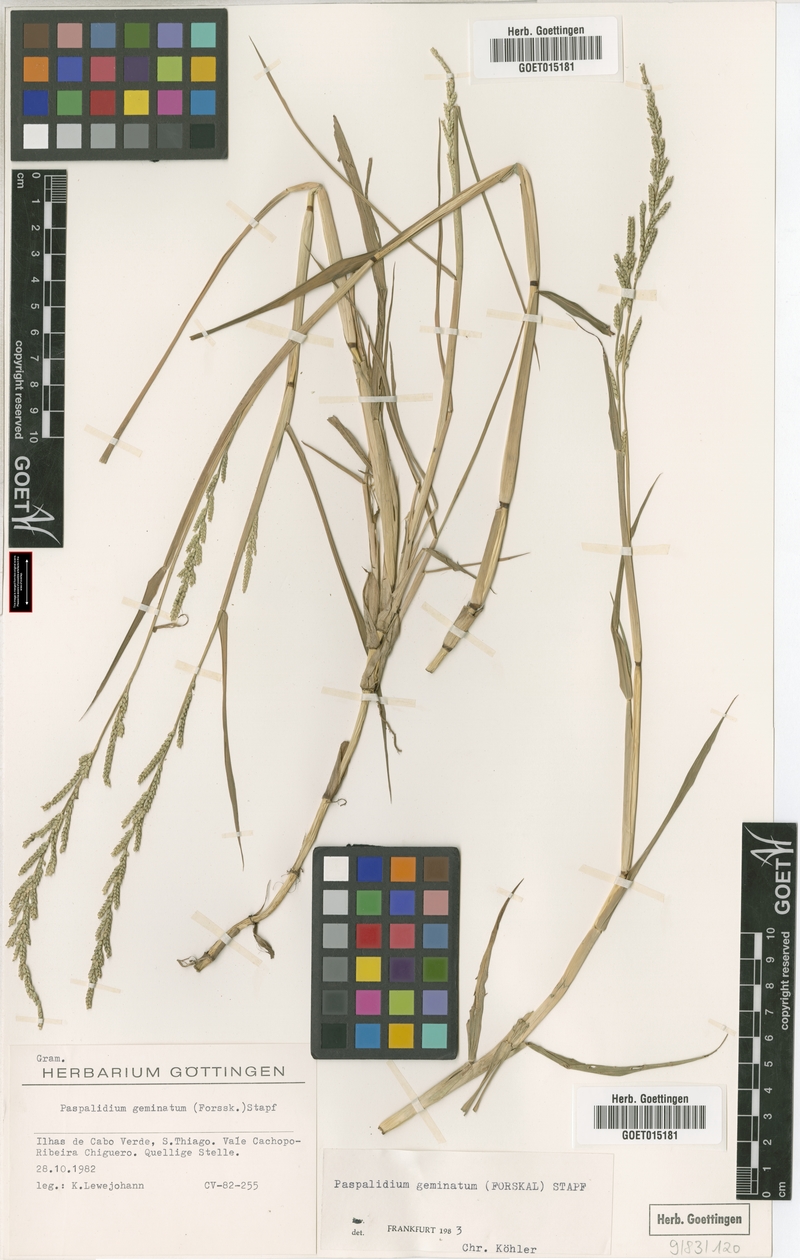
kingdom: Plantae
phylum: Tracheophyta
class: Liliopsida
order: Poales
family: Poaceae
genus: Setaria
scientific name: Setaria geminata
